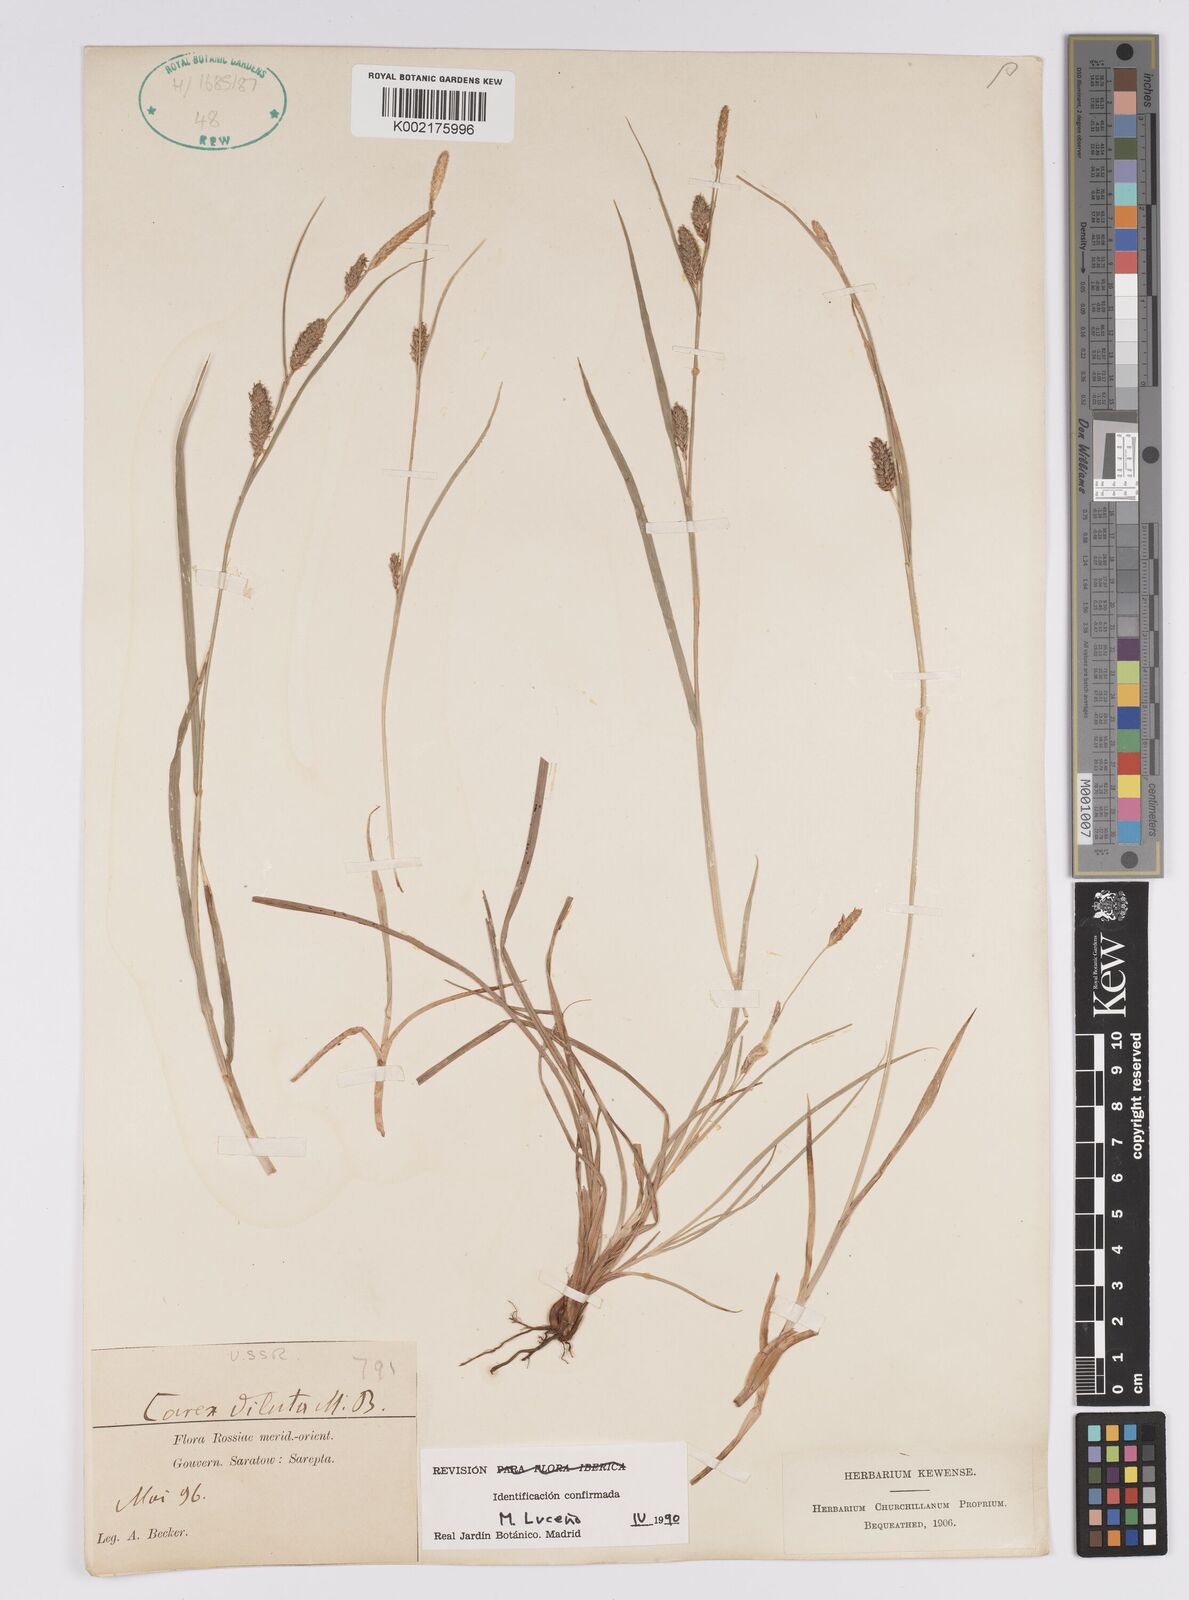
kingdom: Plantae
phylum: Tracheophyta
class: Liliopsida
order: Poales
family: Cyperaceae
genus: Carex
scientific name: Carex diluta
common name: Sedge
